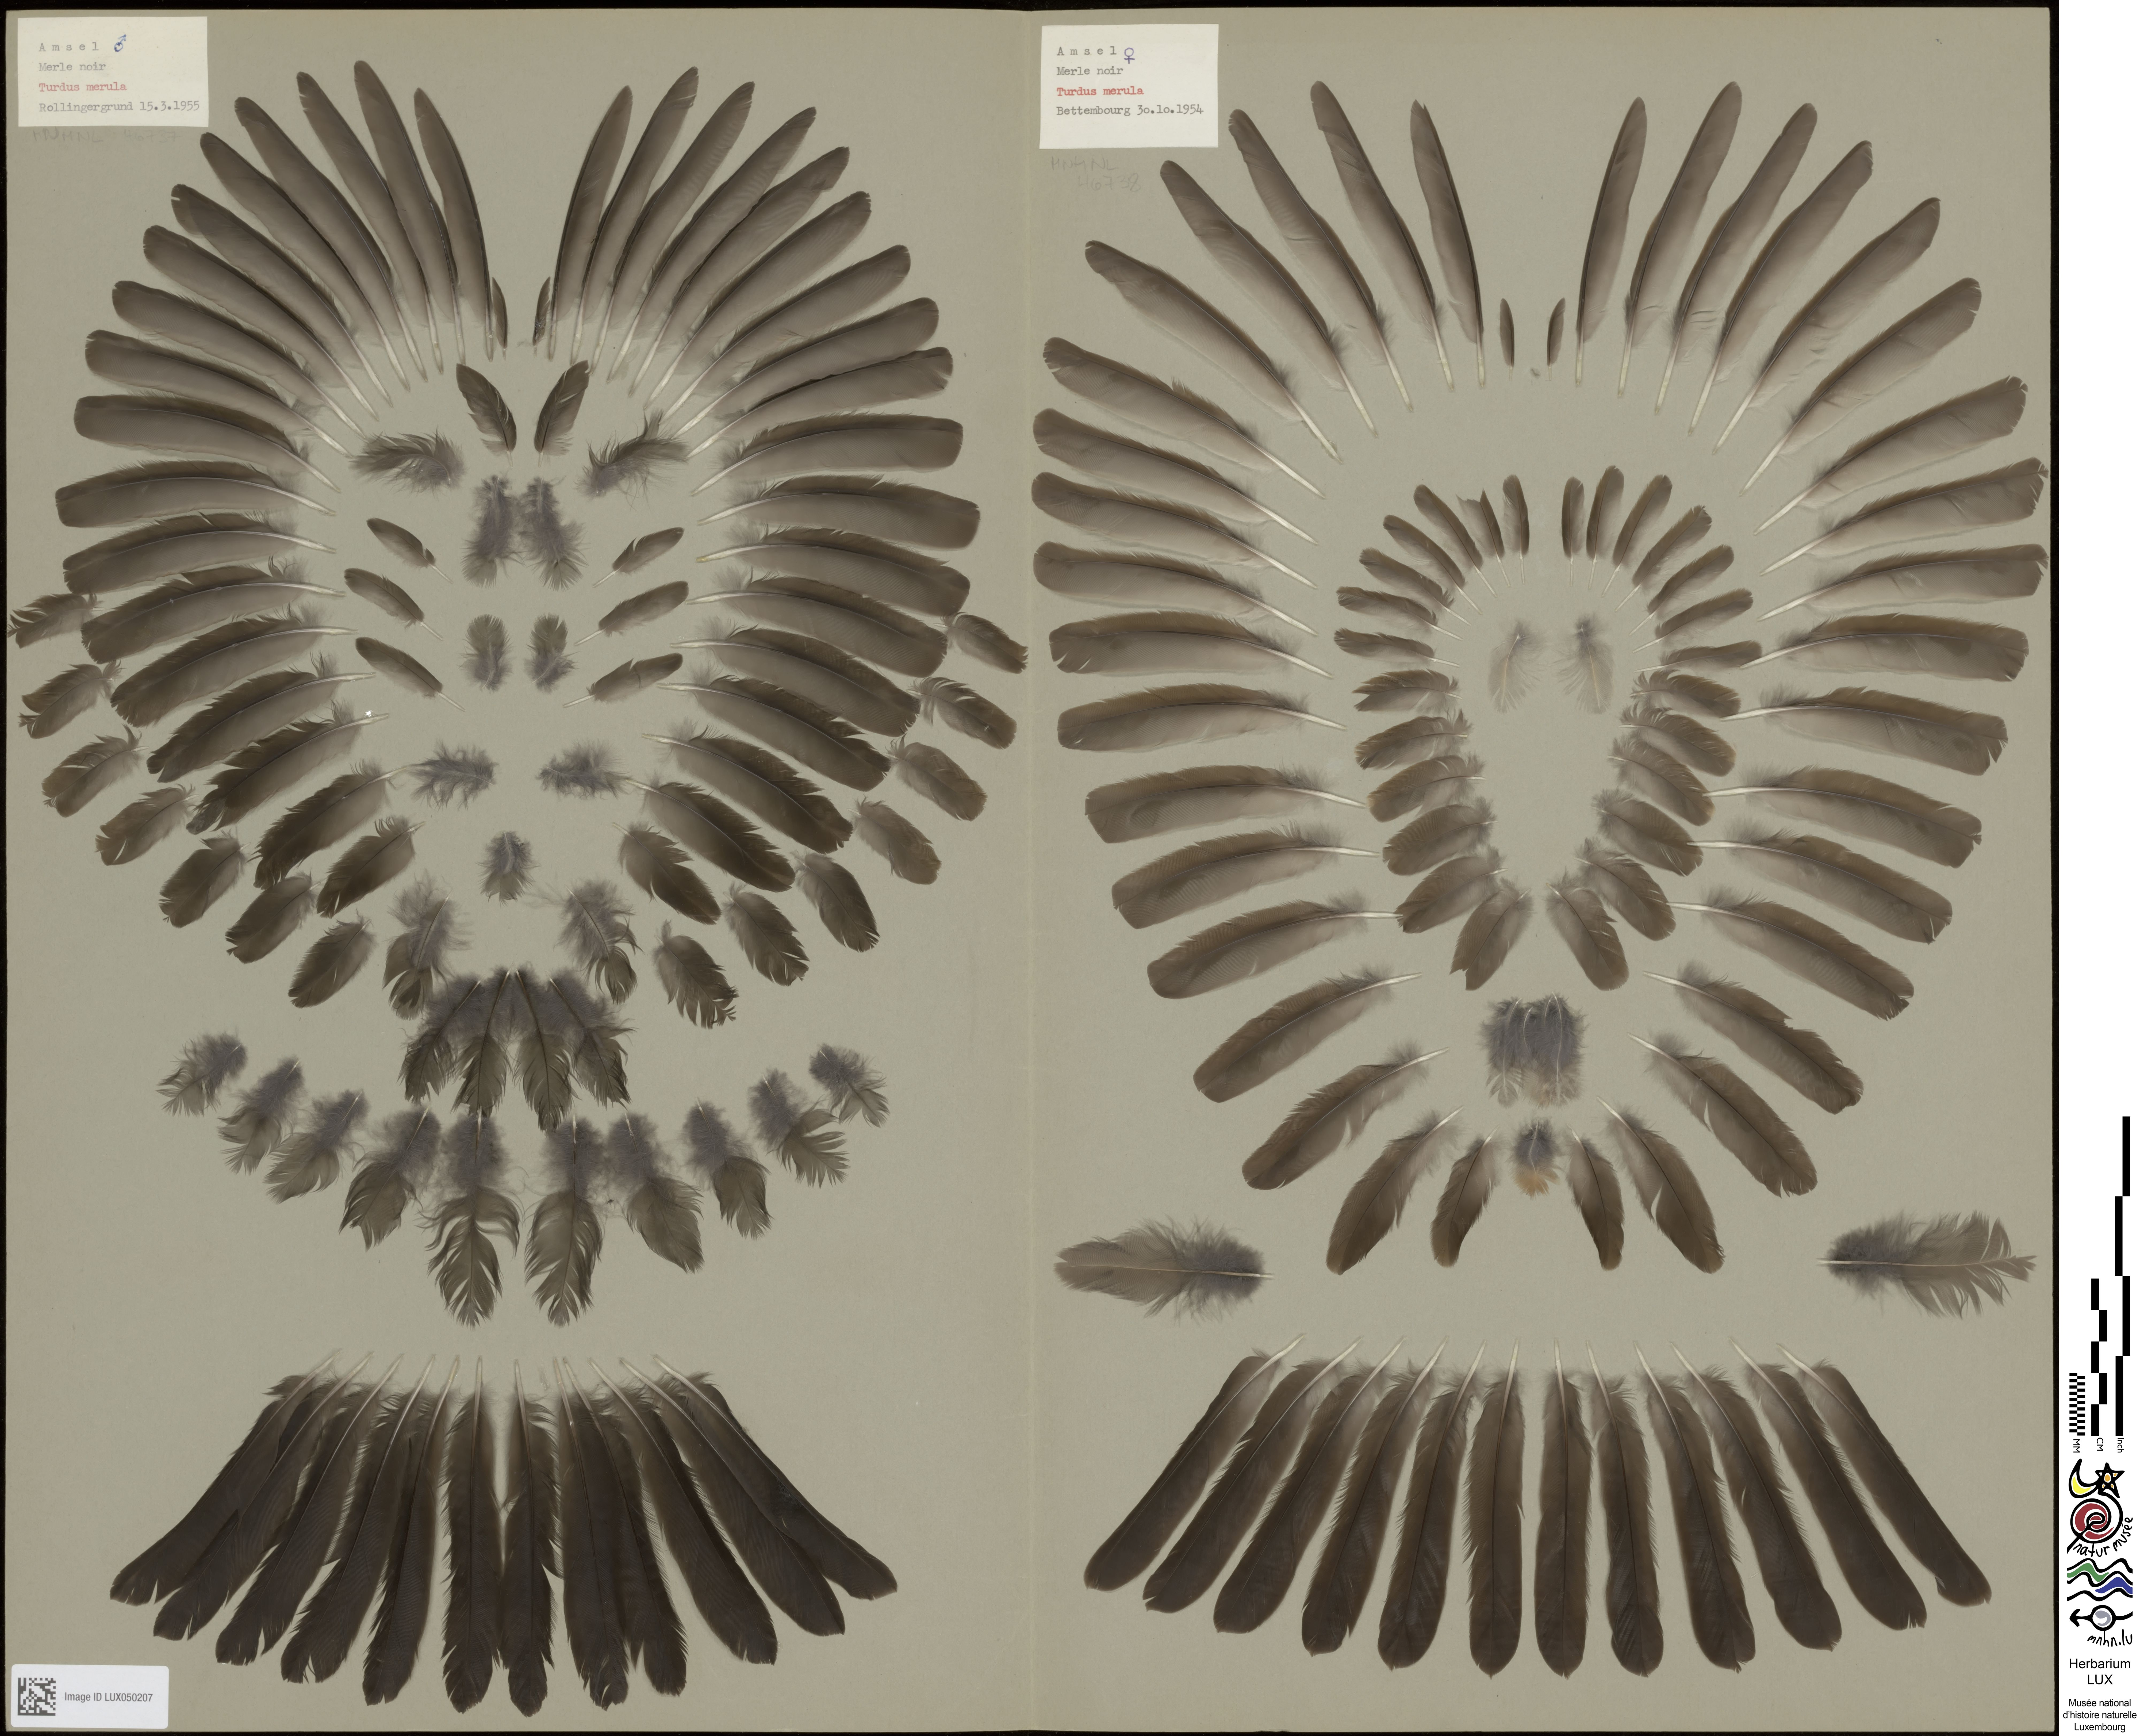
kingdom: Animalia
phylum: Chordata
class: Aves
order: Passeriformes
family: Turdidae
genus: Turdus
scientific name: Turdus merula
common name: Common blackbird
